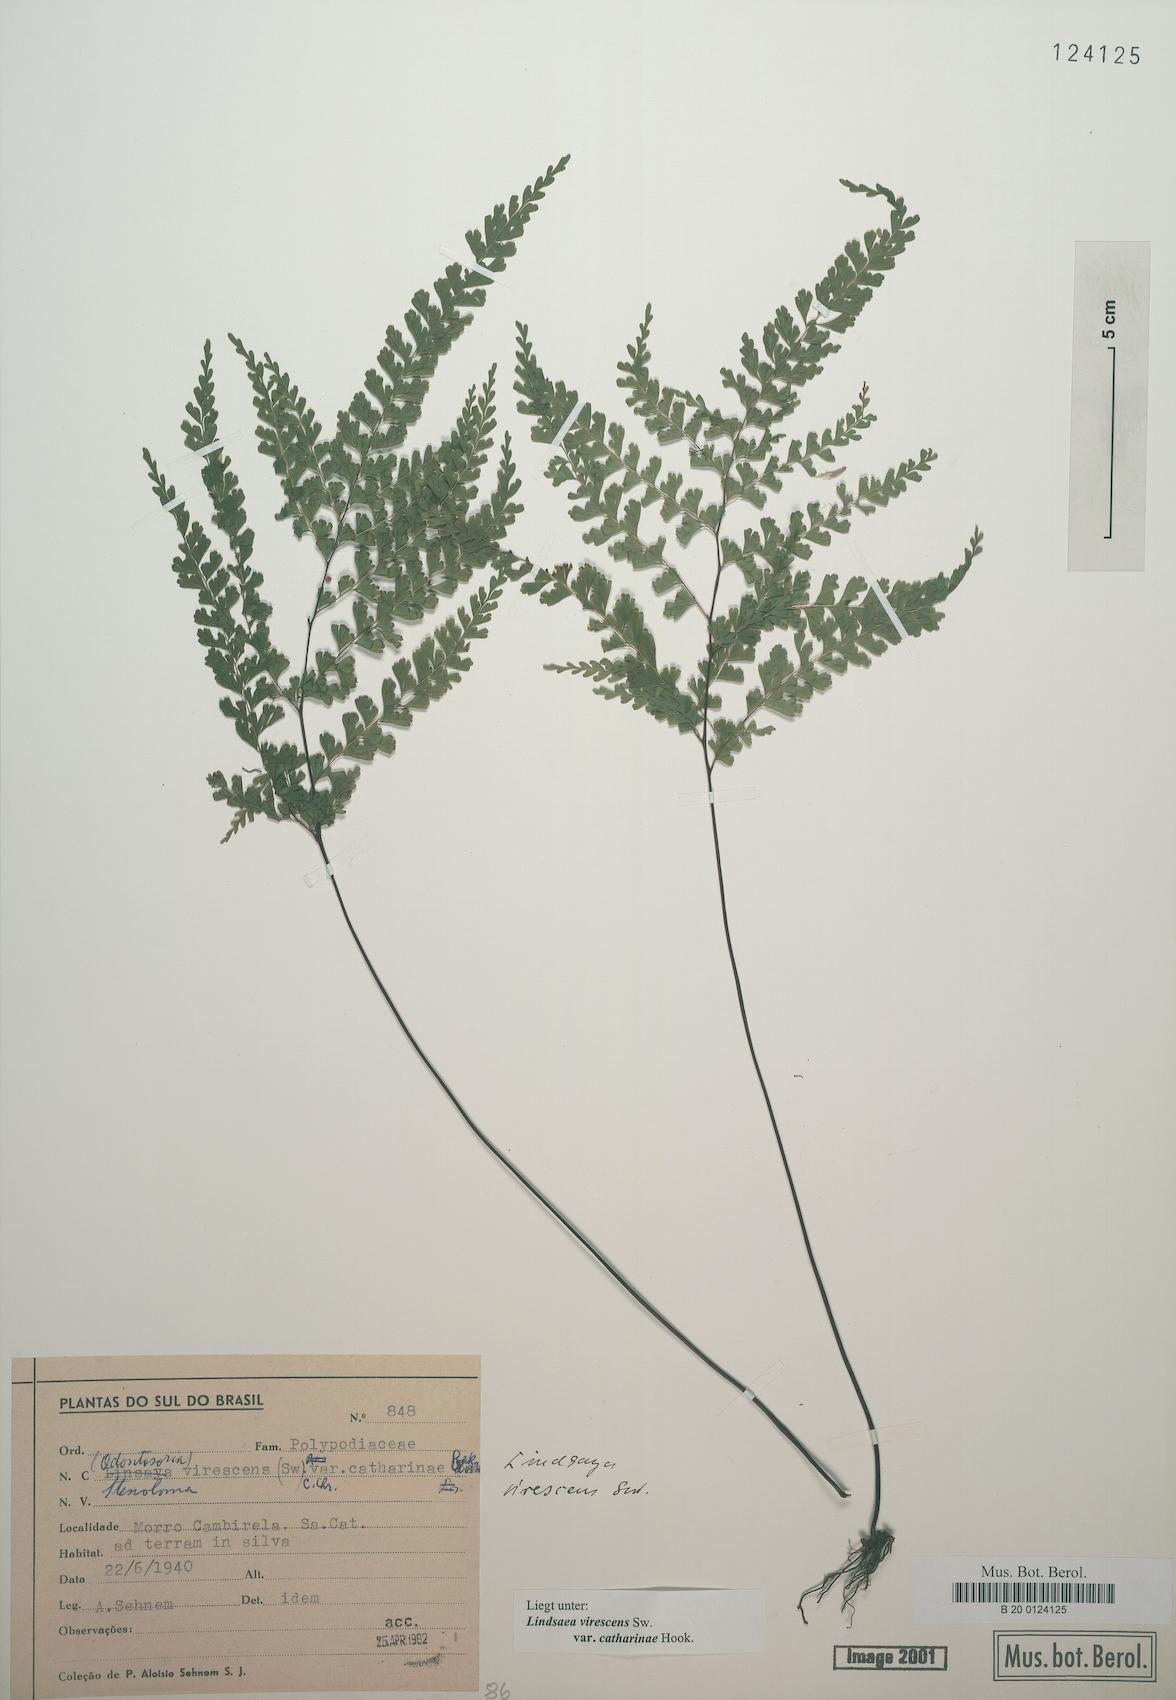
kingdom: Plantae
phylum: Tracheophyta
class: Polypodiopsida
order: Polypodiales
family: Lindsaeaceae
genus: Lindsaea
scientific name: Lindsaea virescens
